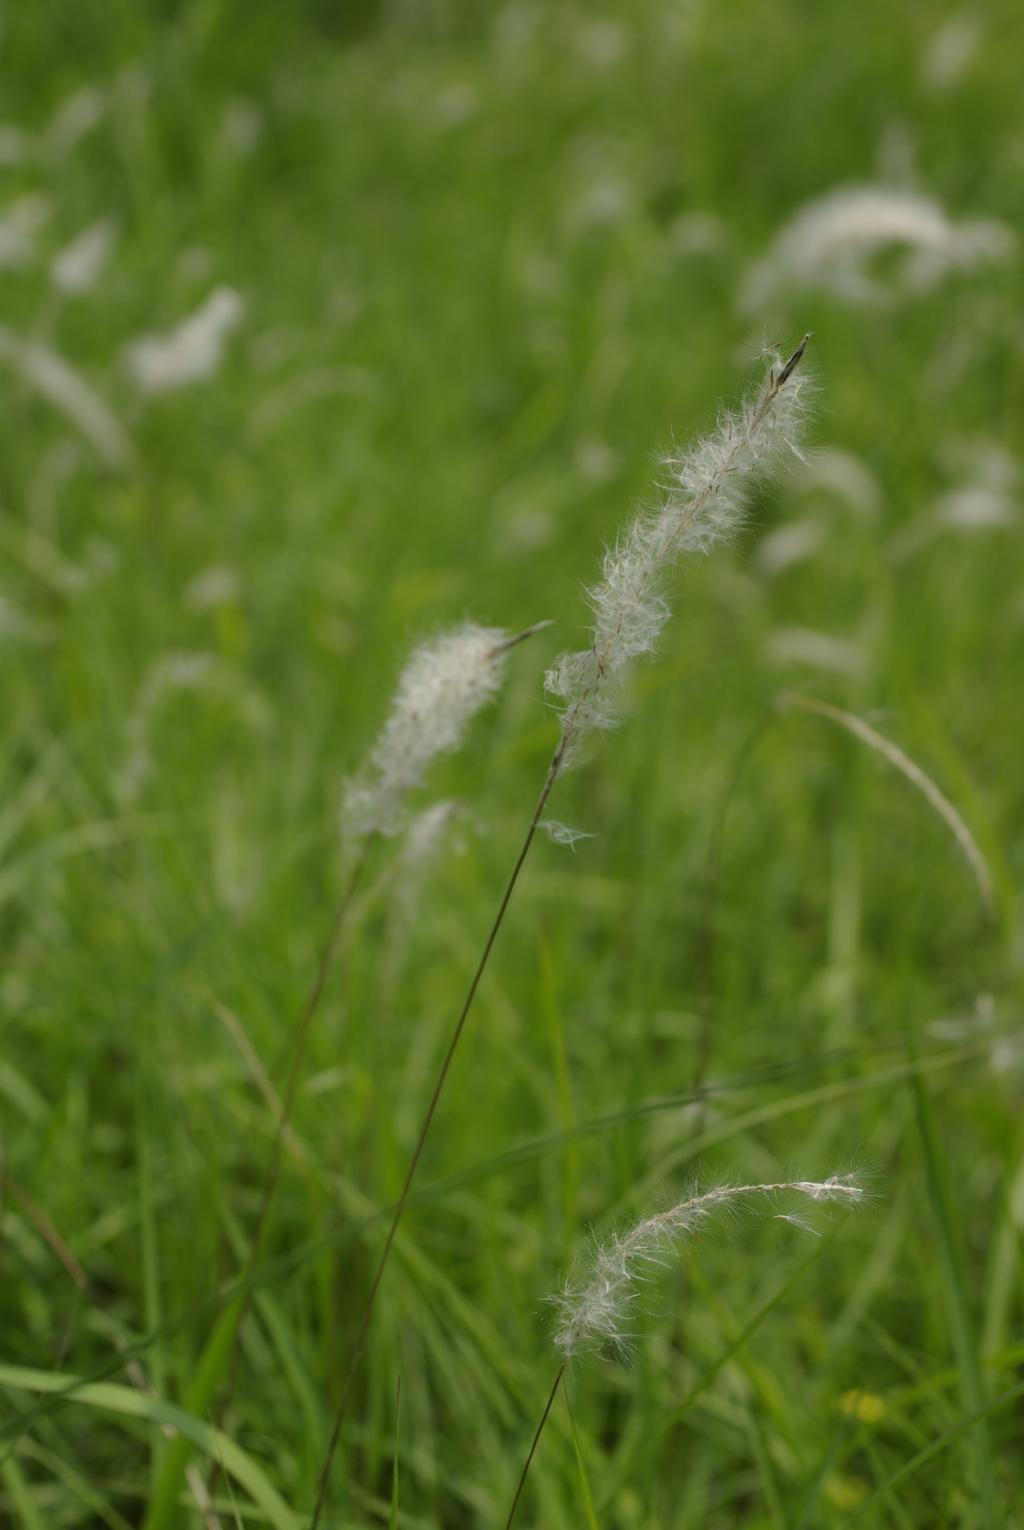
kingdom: Plantae
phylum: Tracheophyta
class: Liliopsida
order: Poales
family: Poaceae
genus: Imperata
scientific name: Imperata cylindrica
